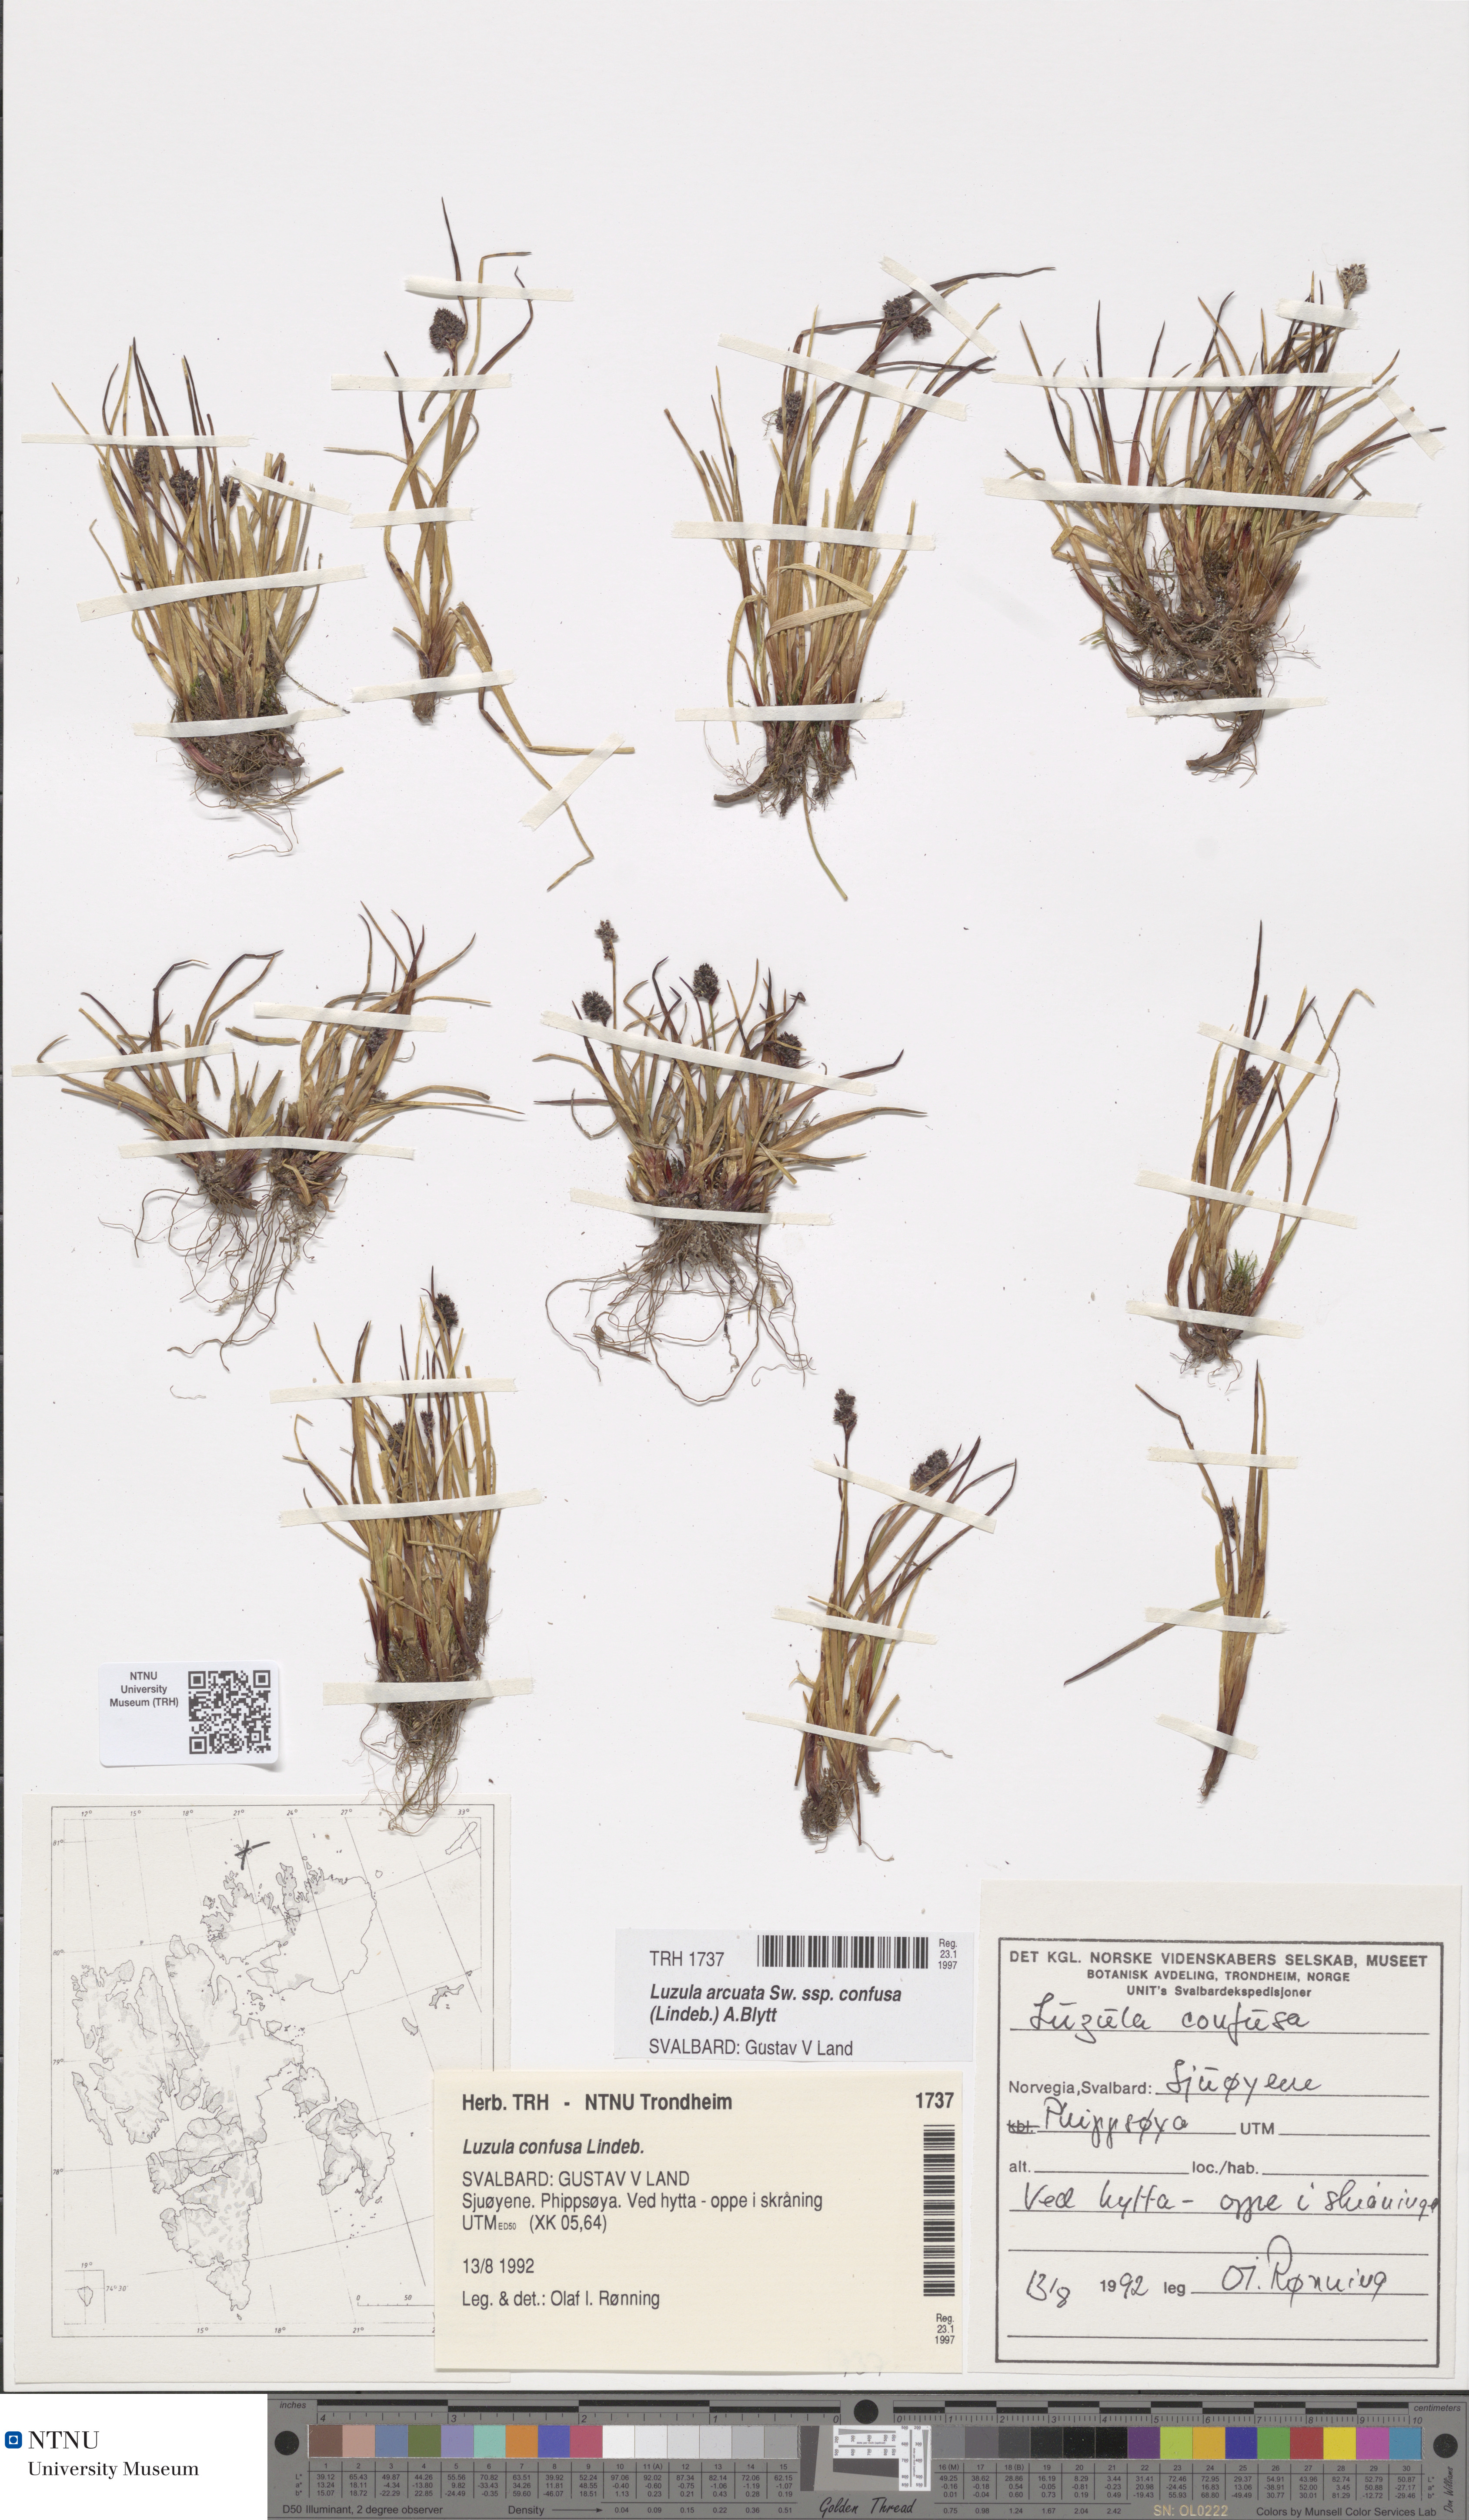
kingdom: Plantae
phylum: Tracheophyta
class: Liliopsida
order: Poales
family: Juncaceae
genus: Luzula
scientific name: Luzula confusa
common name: Northern wood rush
